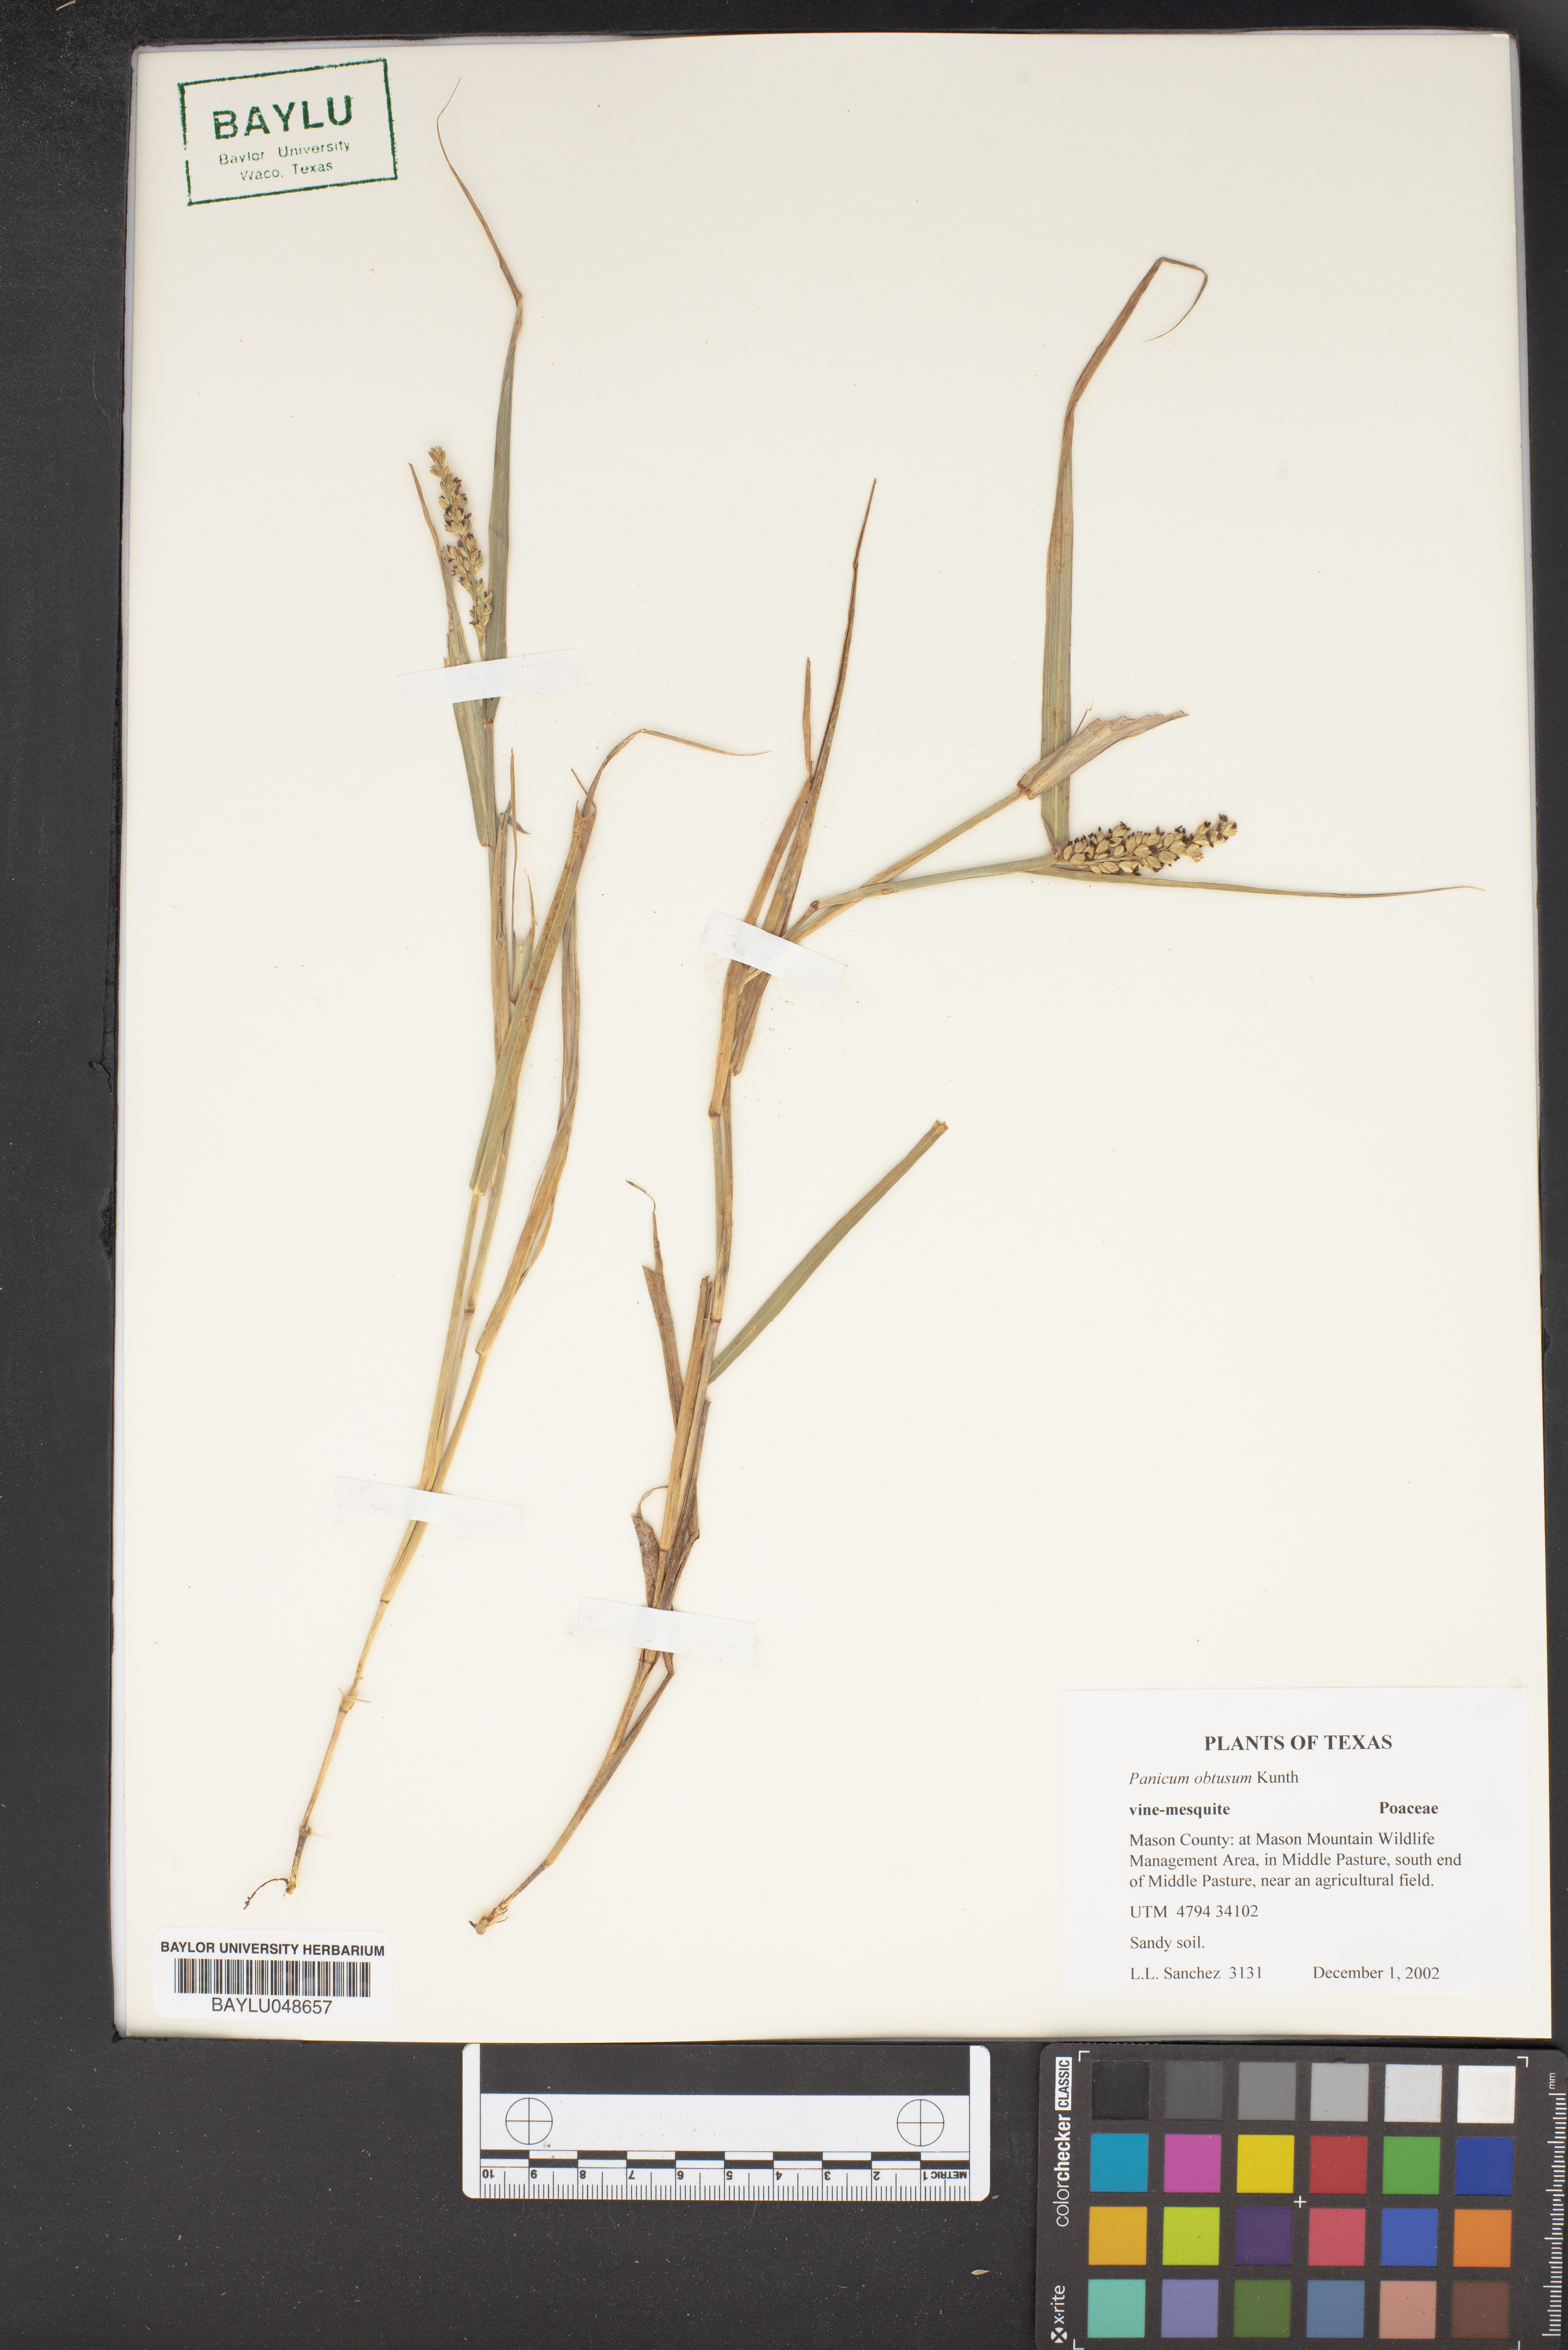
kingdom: Plantae
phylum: Tracheophyta
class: Liliopsida
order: Poales
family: Poaceae
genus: Hopia
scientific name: Hopia obtusa
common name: Vine-mesquite
